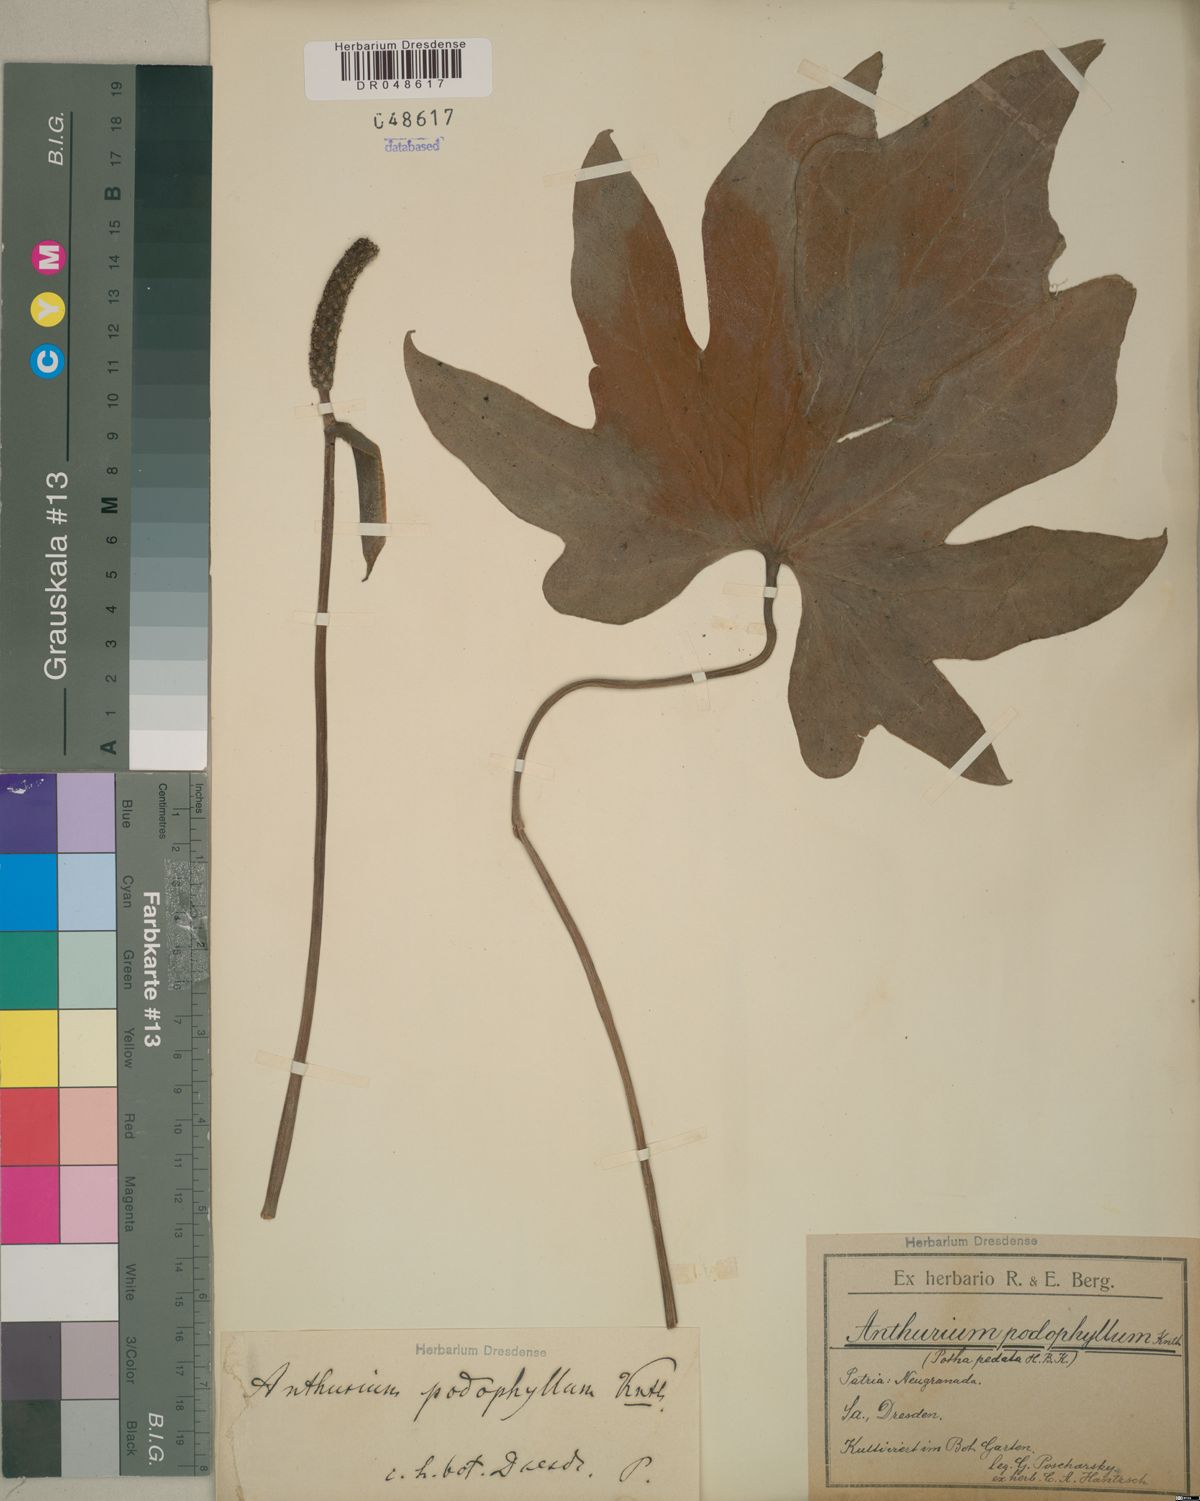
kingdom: Plantae
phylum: Tracheophyta
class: Liliopsida
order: Alismatales
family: Araceae
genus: Anthurium
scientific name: Anthurium podophyllum
